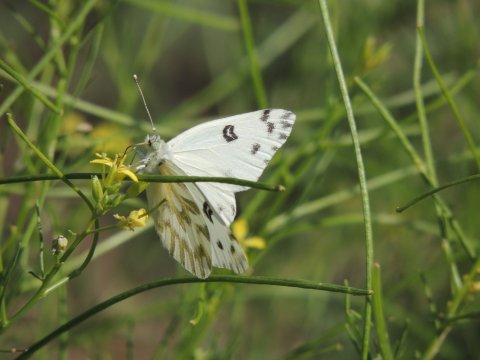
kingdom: Animalia
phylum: Arthropoda
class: Insecta
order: Lepidoptera
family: Pieridae
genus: Pontia
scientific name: Pontia beckerii
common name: Becker's White
